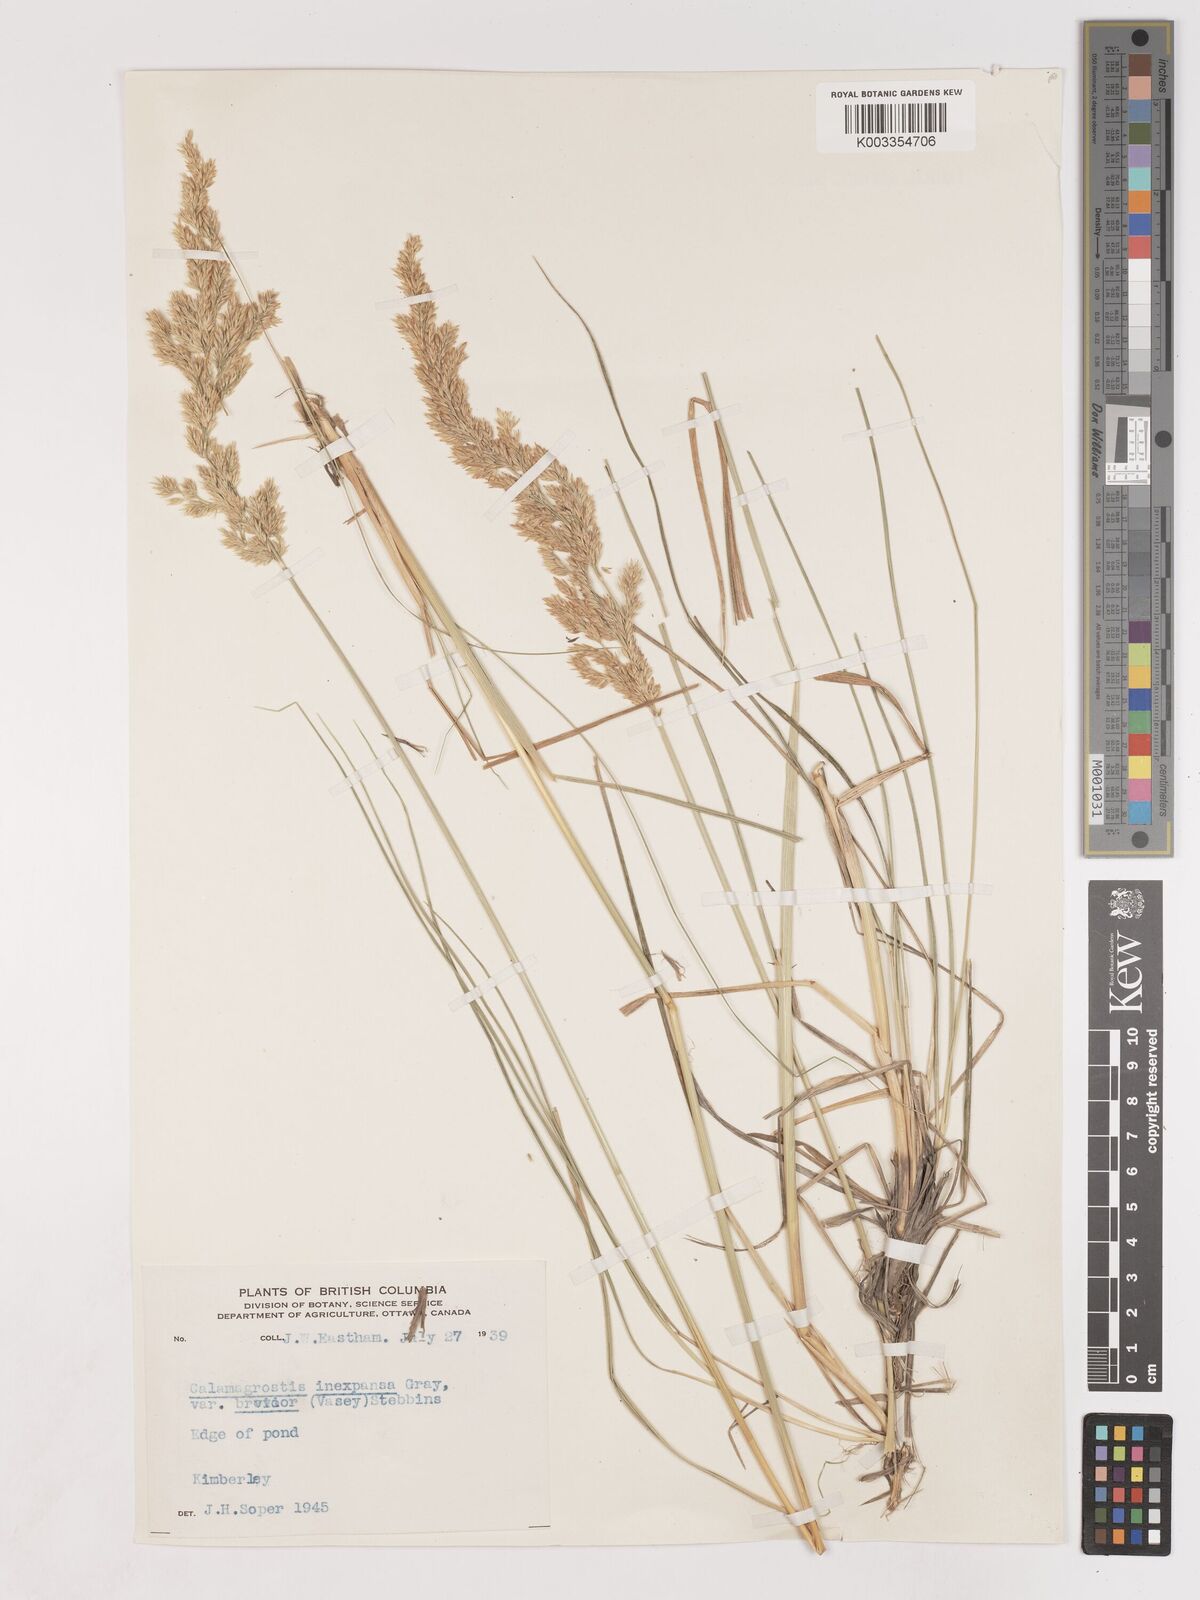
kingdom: Plantae
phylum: Tracheophyta
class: Liliopsida
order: Poales
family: Poaceae
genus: Cinnagrostis
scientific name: Cinnagrostis recta
